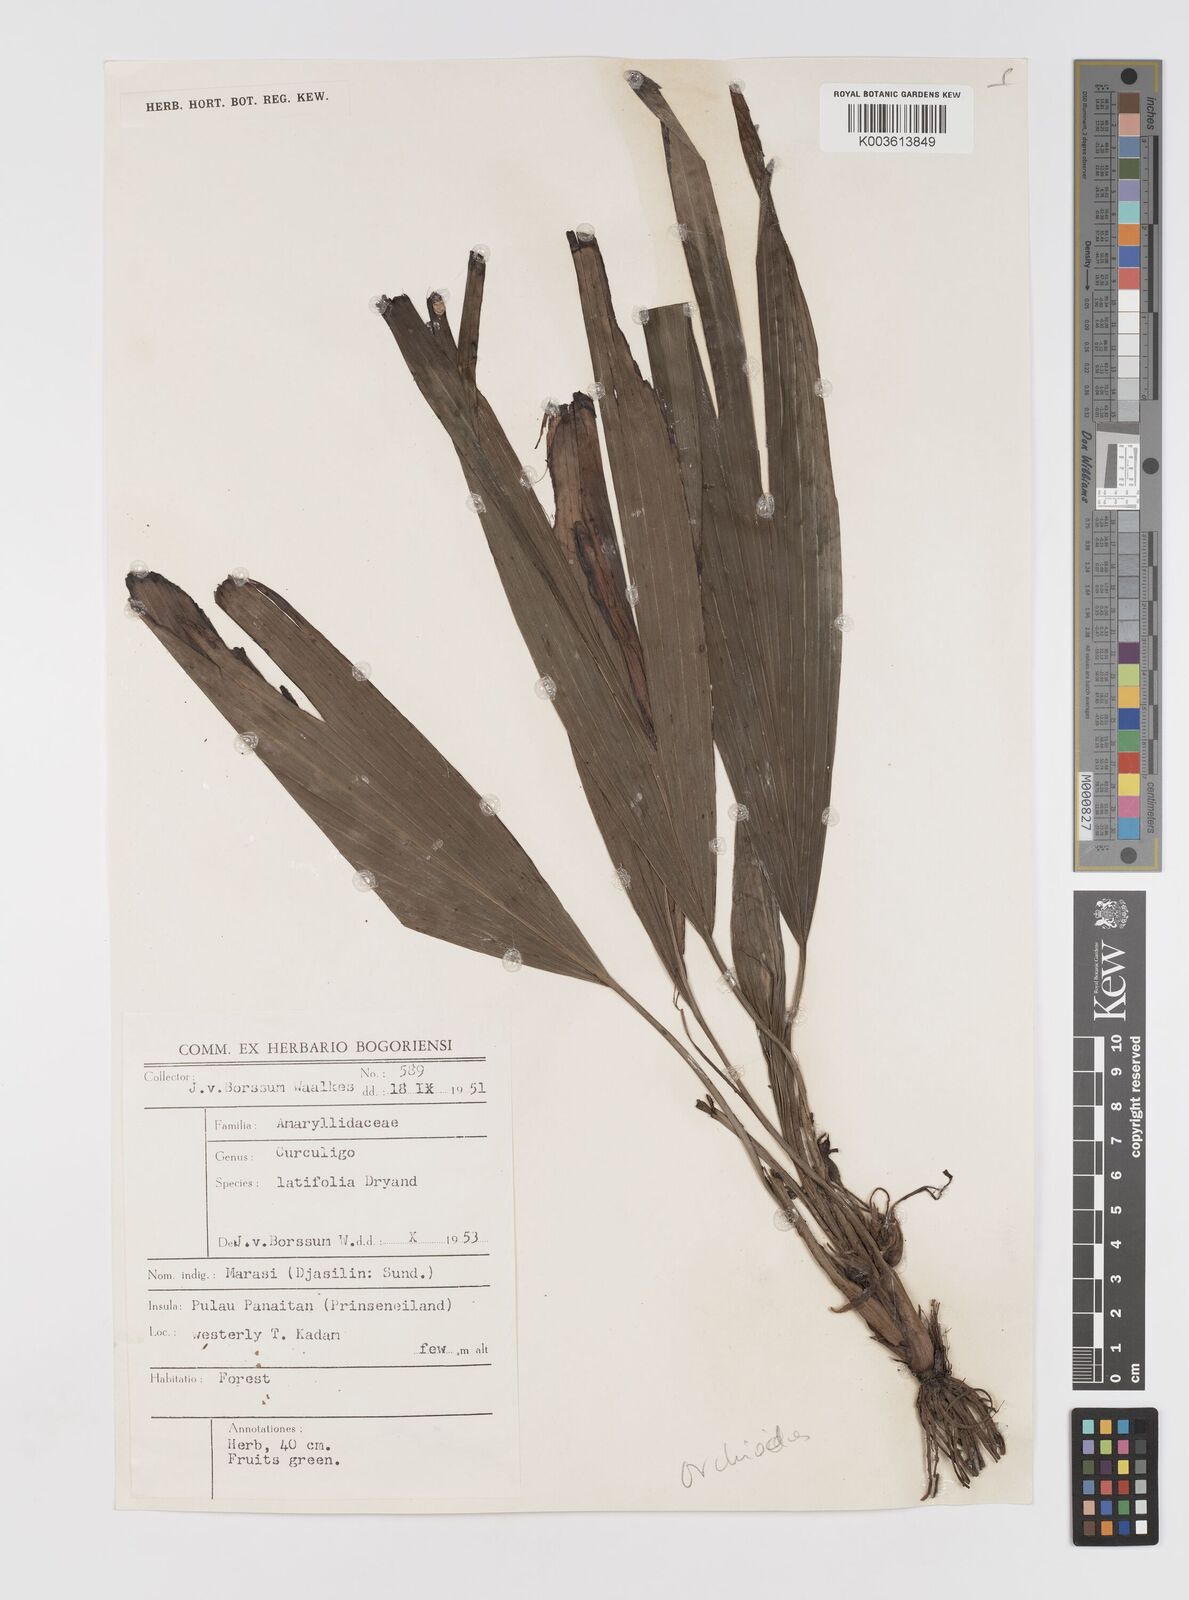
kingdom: Plantae
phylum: Tracheophyta
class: Liliopsida
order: Asparagales
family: Hypoxidaceae
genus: Curculigo
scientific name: Curculigo capitulata
